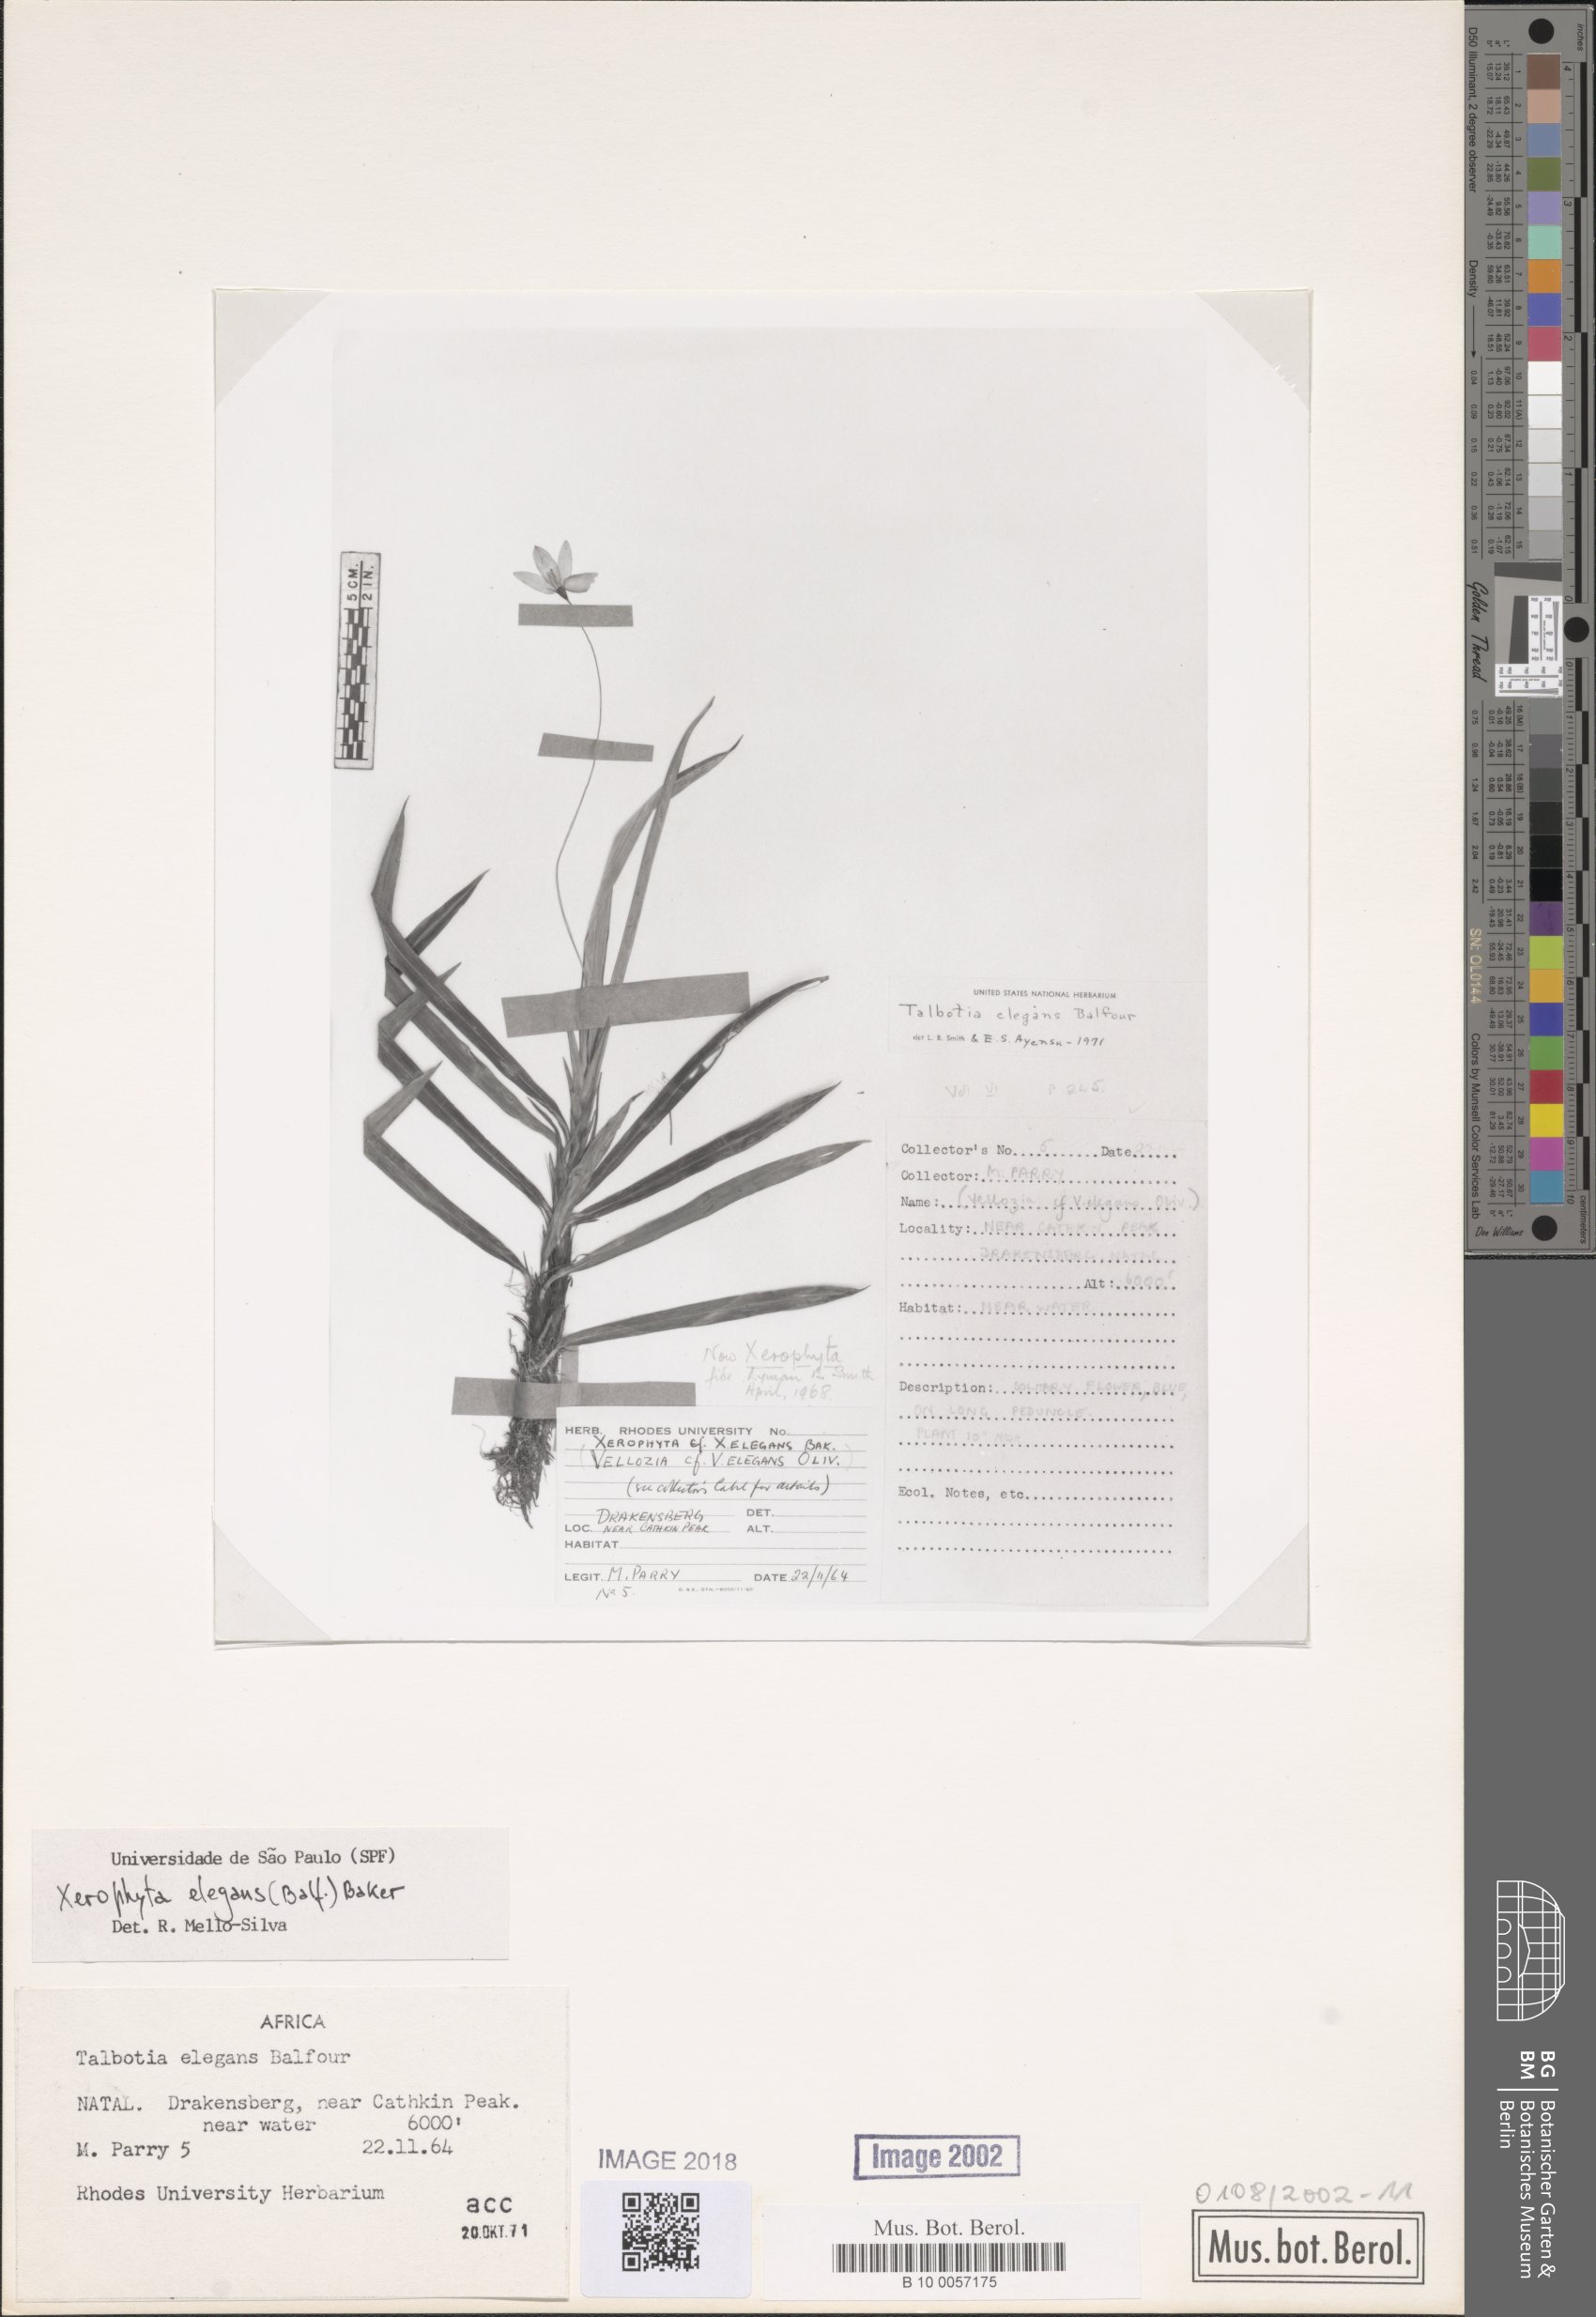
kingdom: Plantae
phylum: Tracheophyta
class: Liliopsida
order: Pandanales
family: Velloziaceae
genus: Xerophyta
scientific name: Xerophyta elegans
